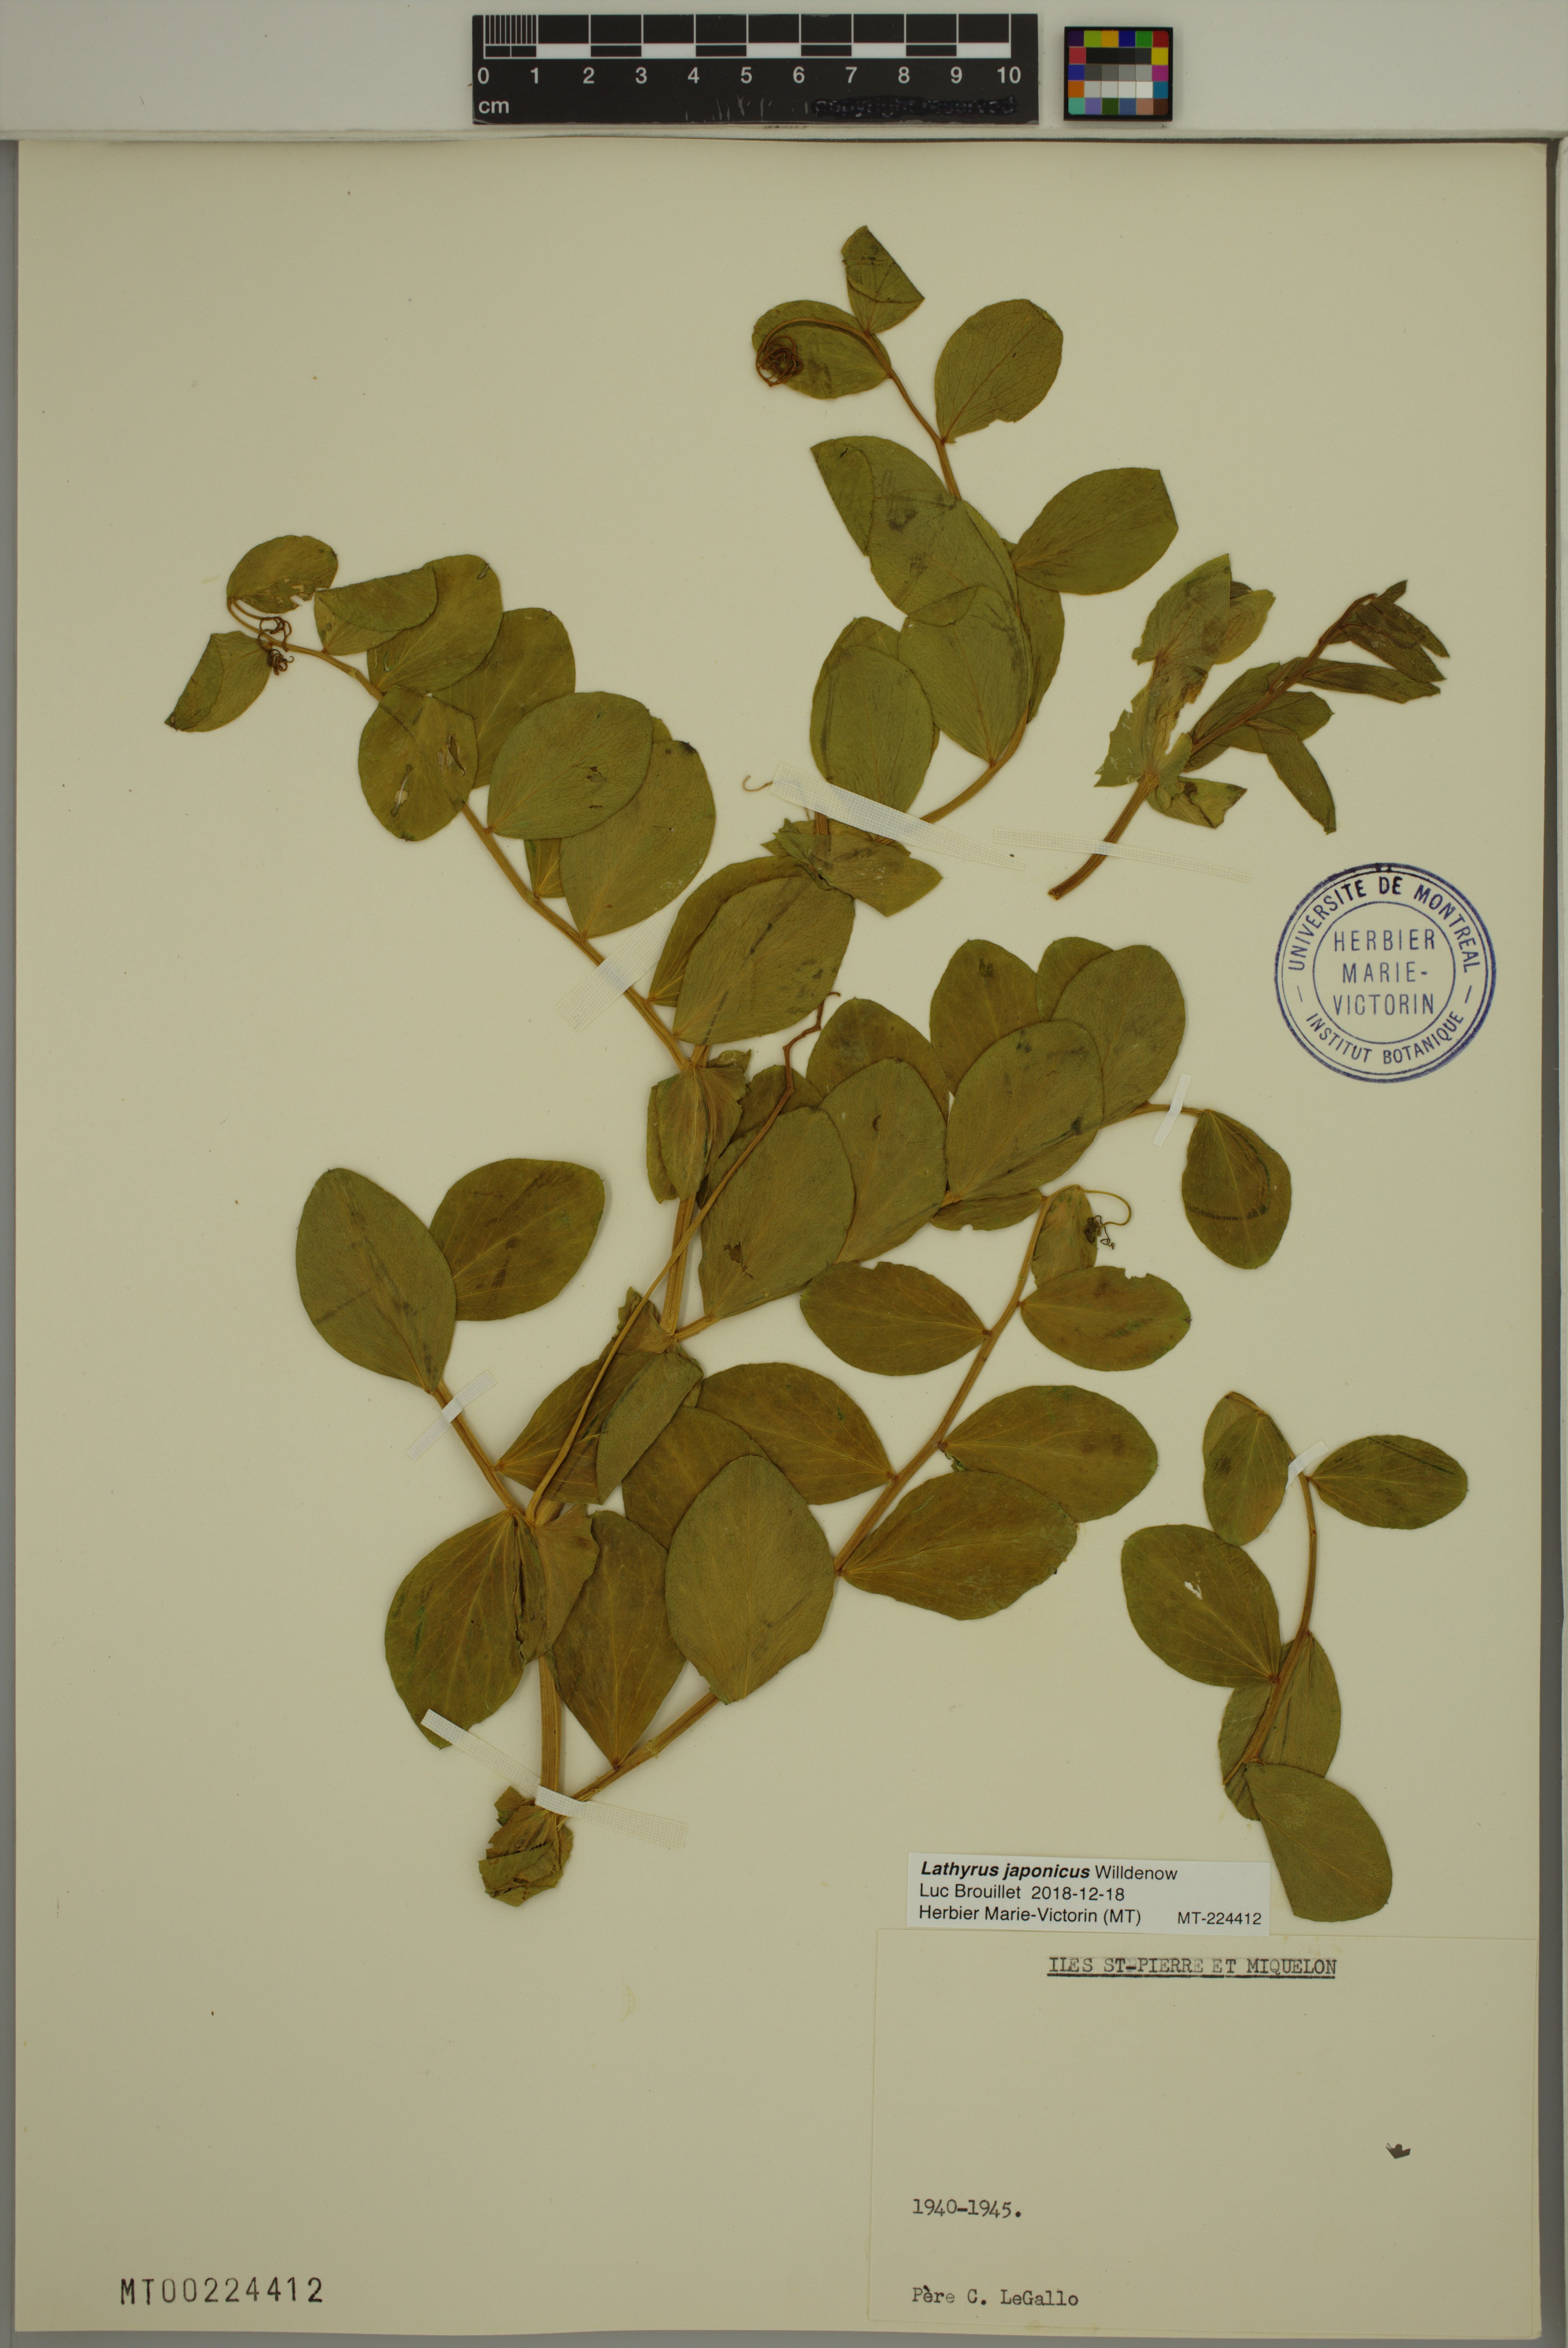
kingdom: Plantae
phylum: Tracheophyta
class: Magnoliopsida
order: Fabales
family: Fabaceae
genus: Lathyrus
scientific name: Lathyrus japonicus
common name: Sea pea
